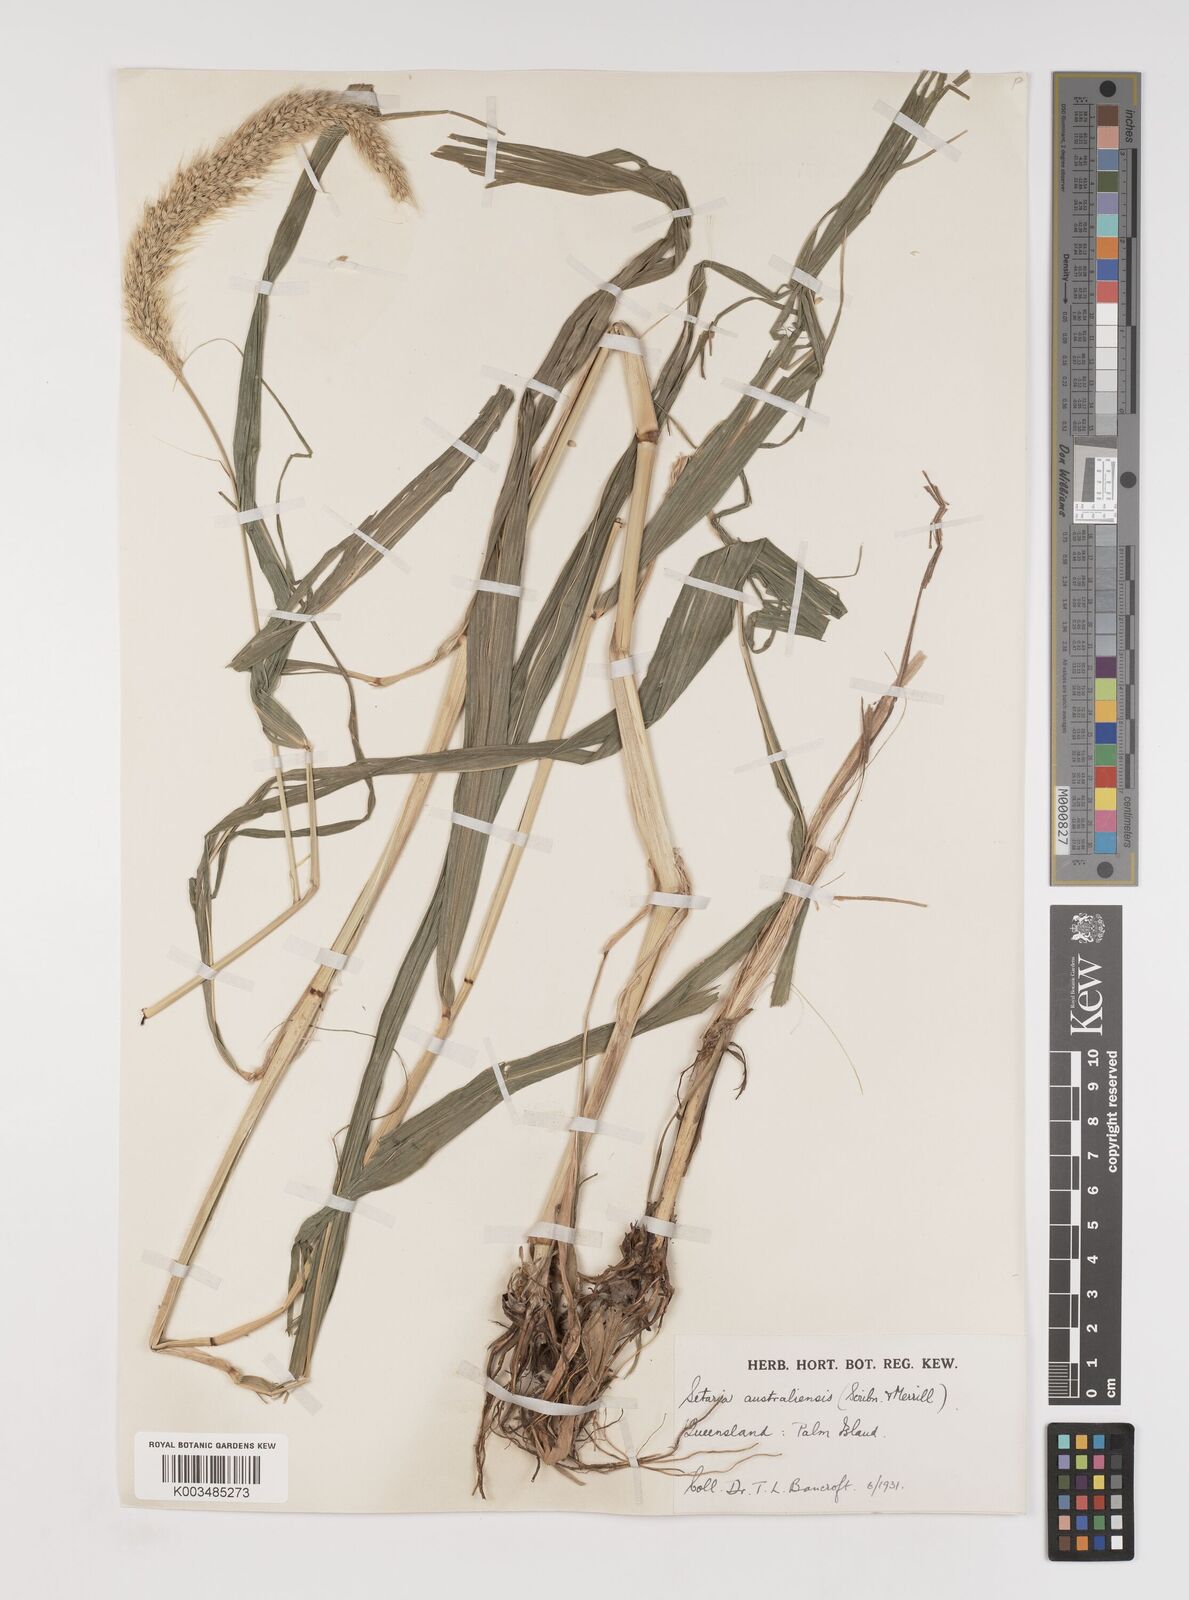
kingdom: Plantae
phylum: Tracheophyta
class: Liliopsida
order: Poales
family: Poaceae
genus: Setaria
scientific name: Setaria australiensis
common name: Scrub pigeon grass
